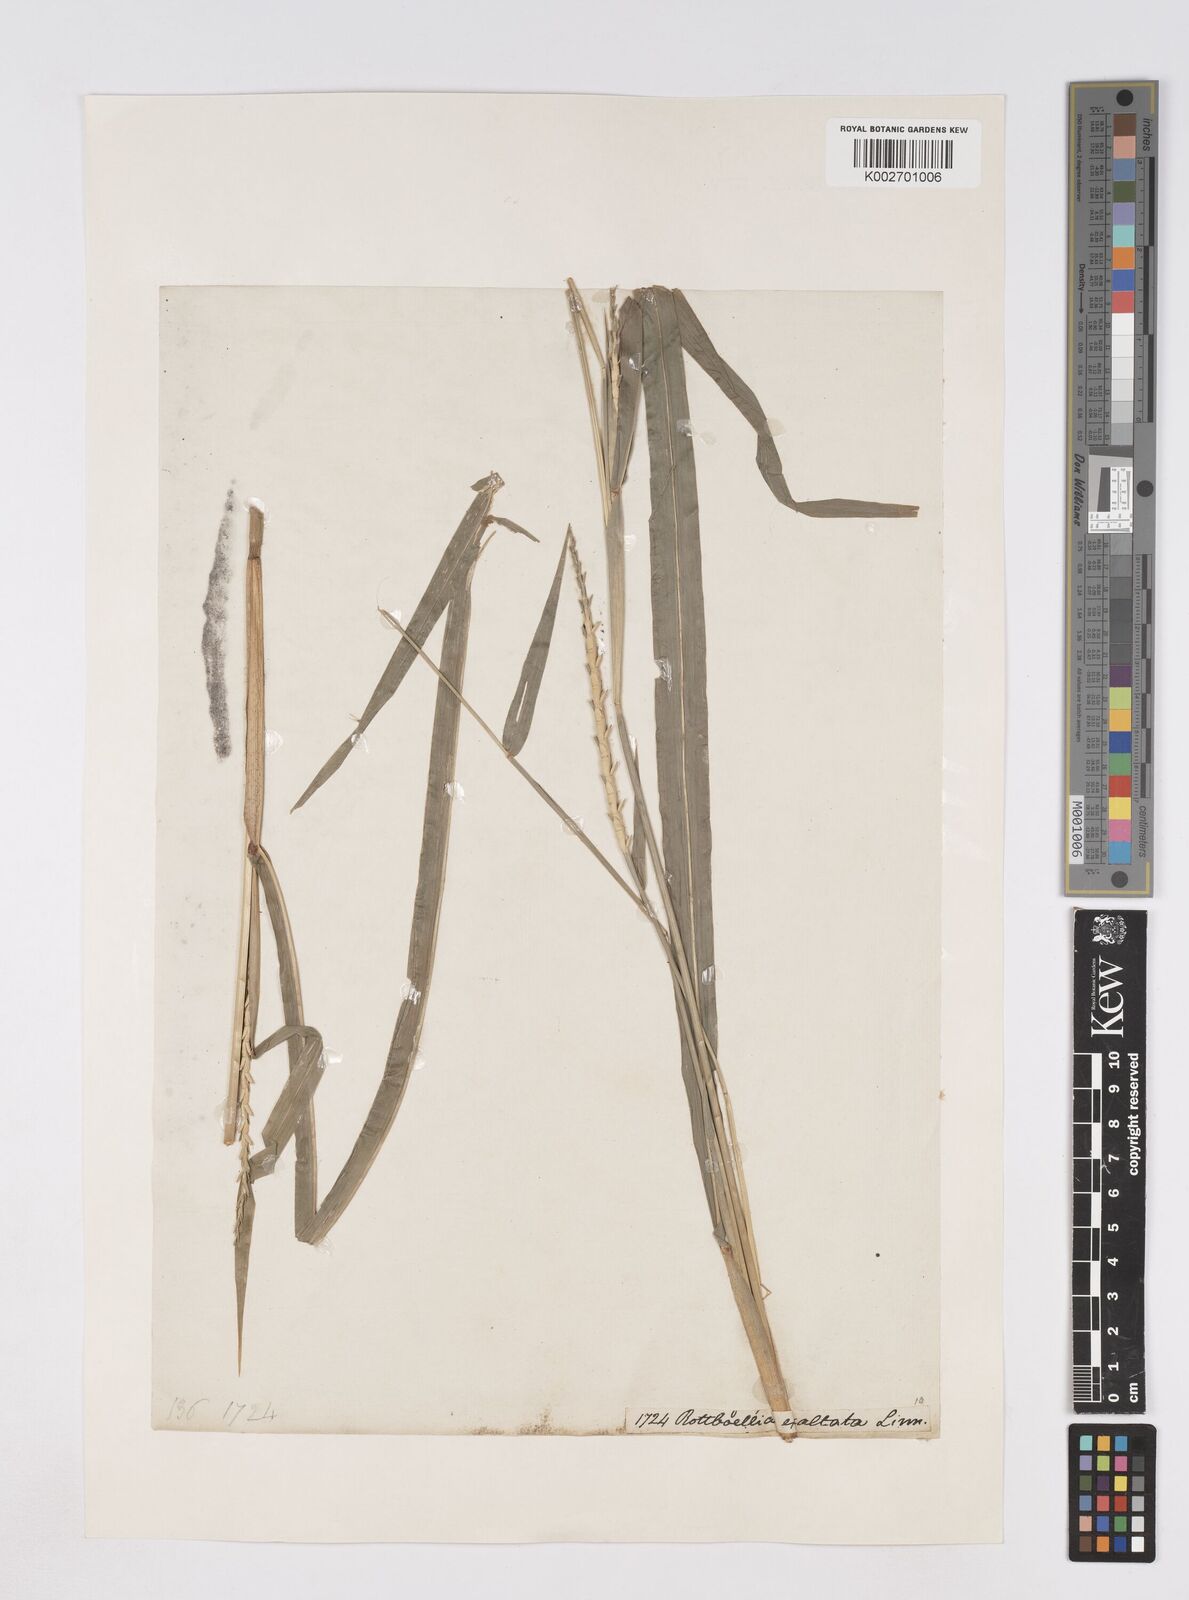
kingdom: Plantae
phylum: Tracheophyta
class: Liliopsida
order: Poales
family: Poaceae
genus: Ophiuros
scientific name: Ophiuros exaltatus
